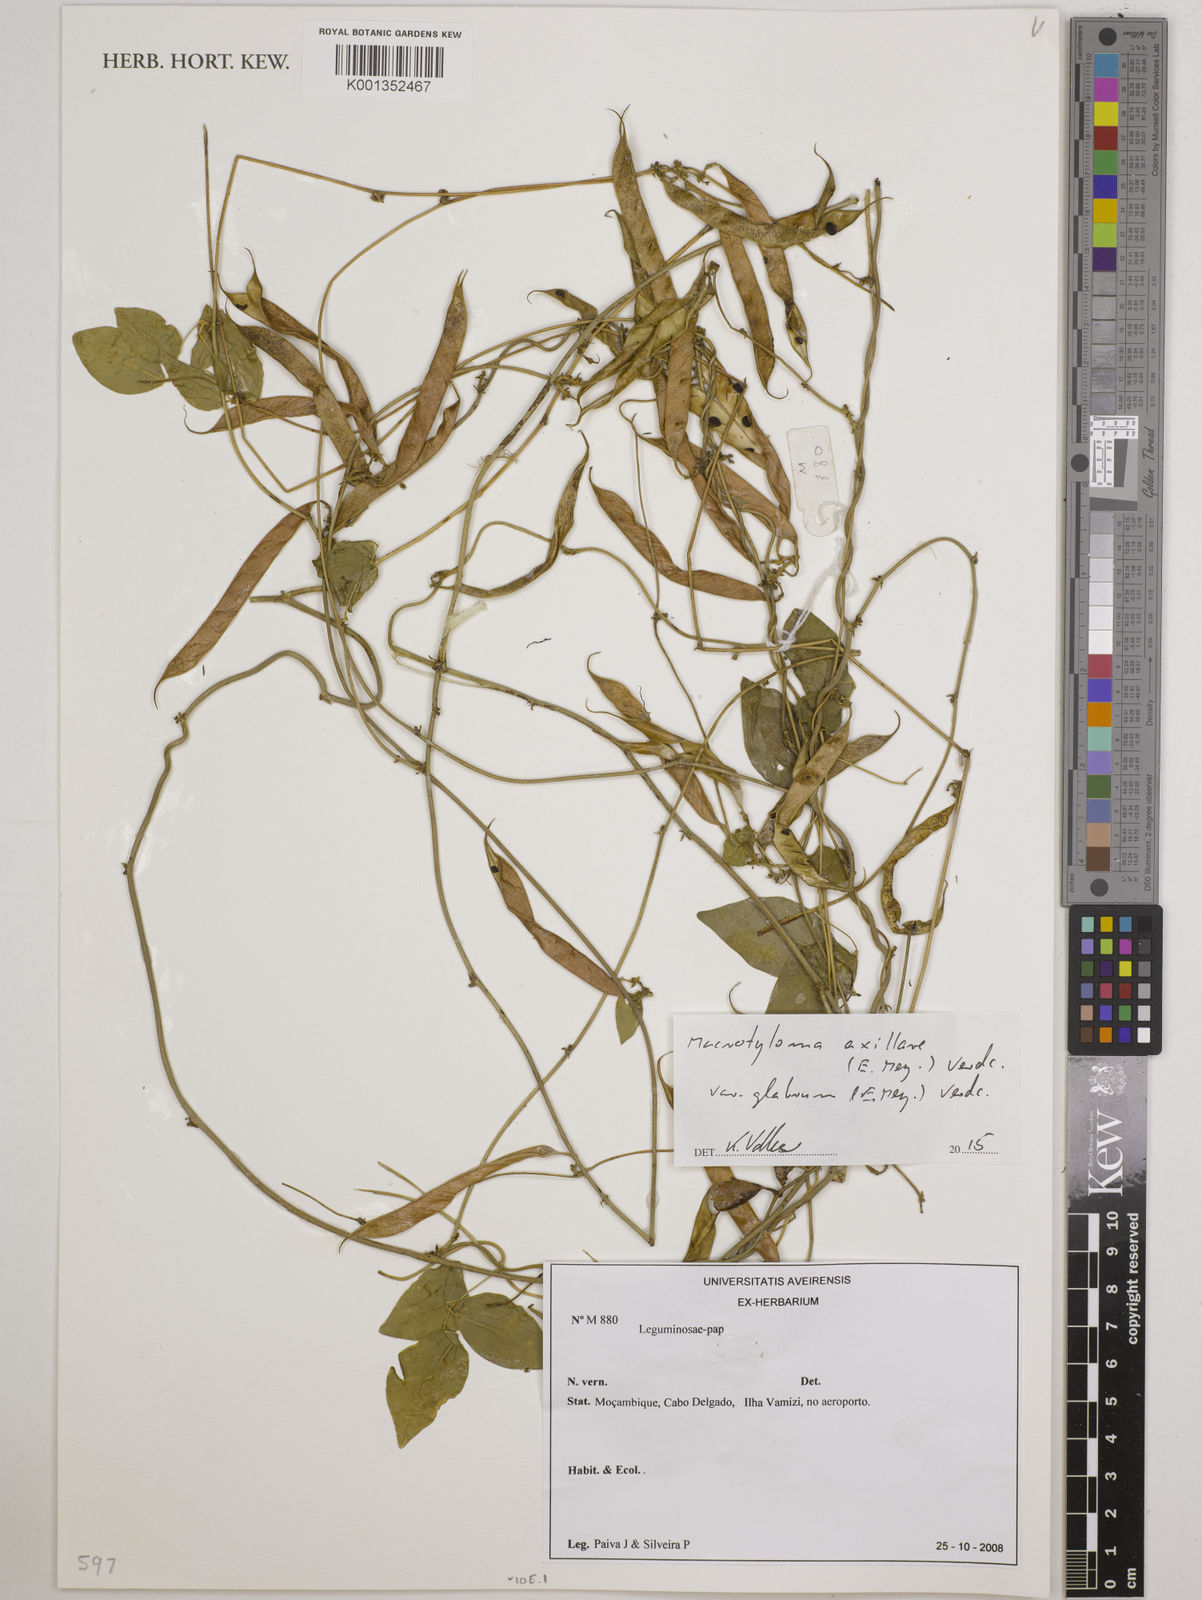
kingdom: Plantae
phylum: Tracheophyta
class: Magnoliopsida
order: Fabales
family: Fabaceae
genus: Macrotyloma
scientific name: Macrotyloma
